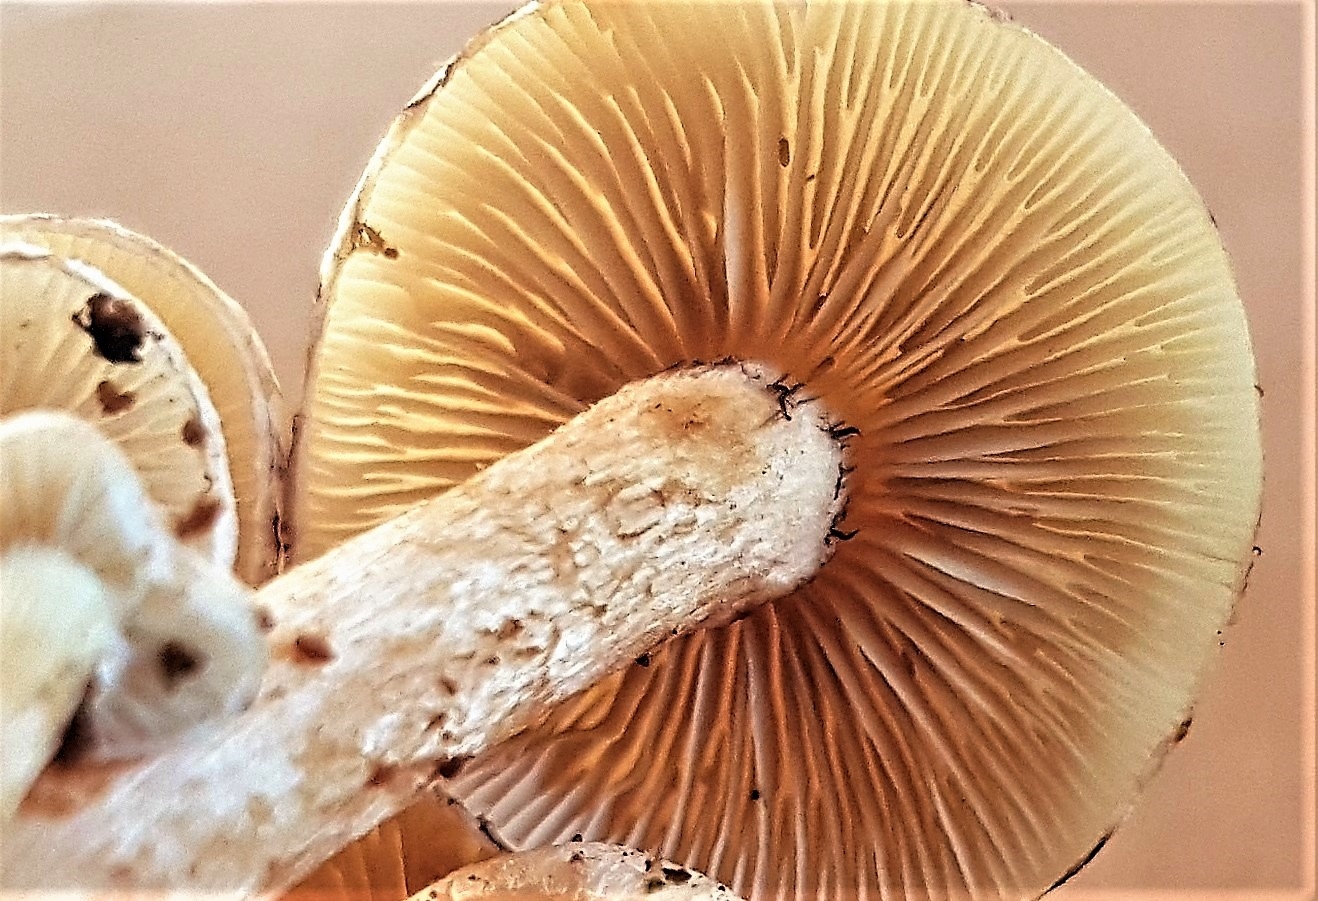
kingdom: Fungi
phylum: Basidiomycota
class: Agaricomycetes
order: Agaricales
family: Strophariaceae
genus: Hypholoma
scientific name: Hypholoma fasciculare
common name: Sulphur tuft
